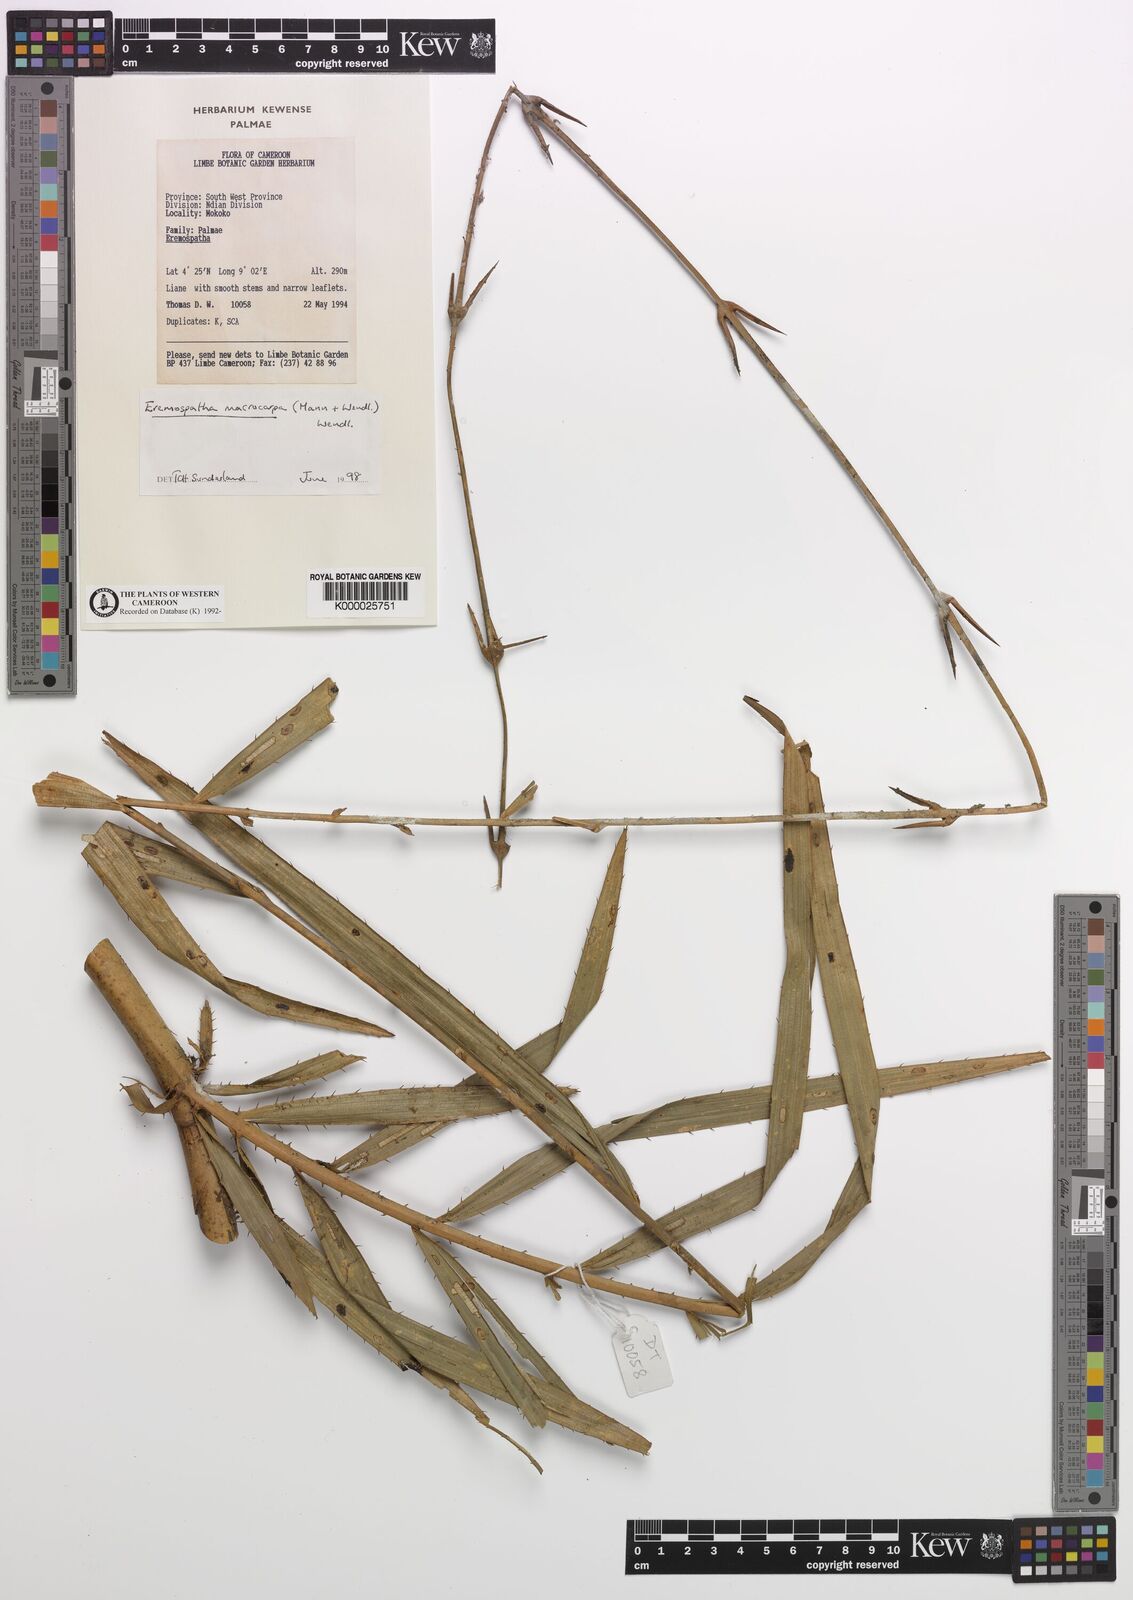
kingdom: Plantae
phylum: Tracheophyta
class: Liliopsida
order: Arecales
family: Arecaceae
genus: Eremospatha
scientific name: Eremospatha
